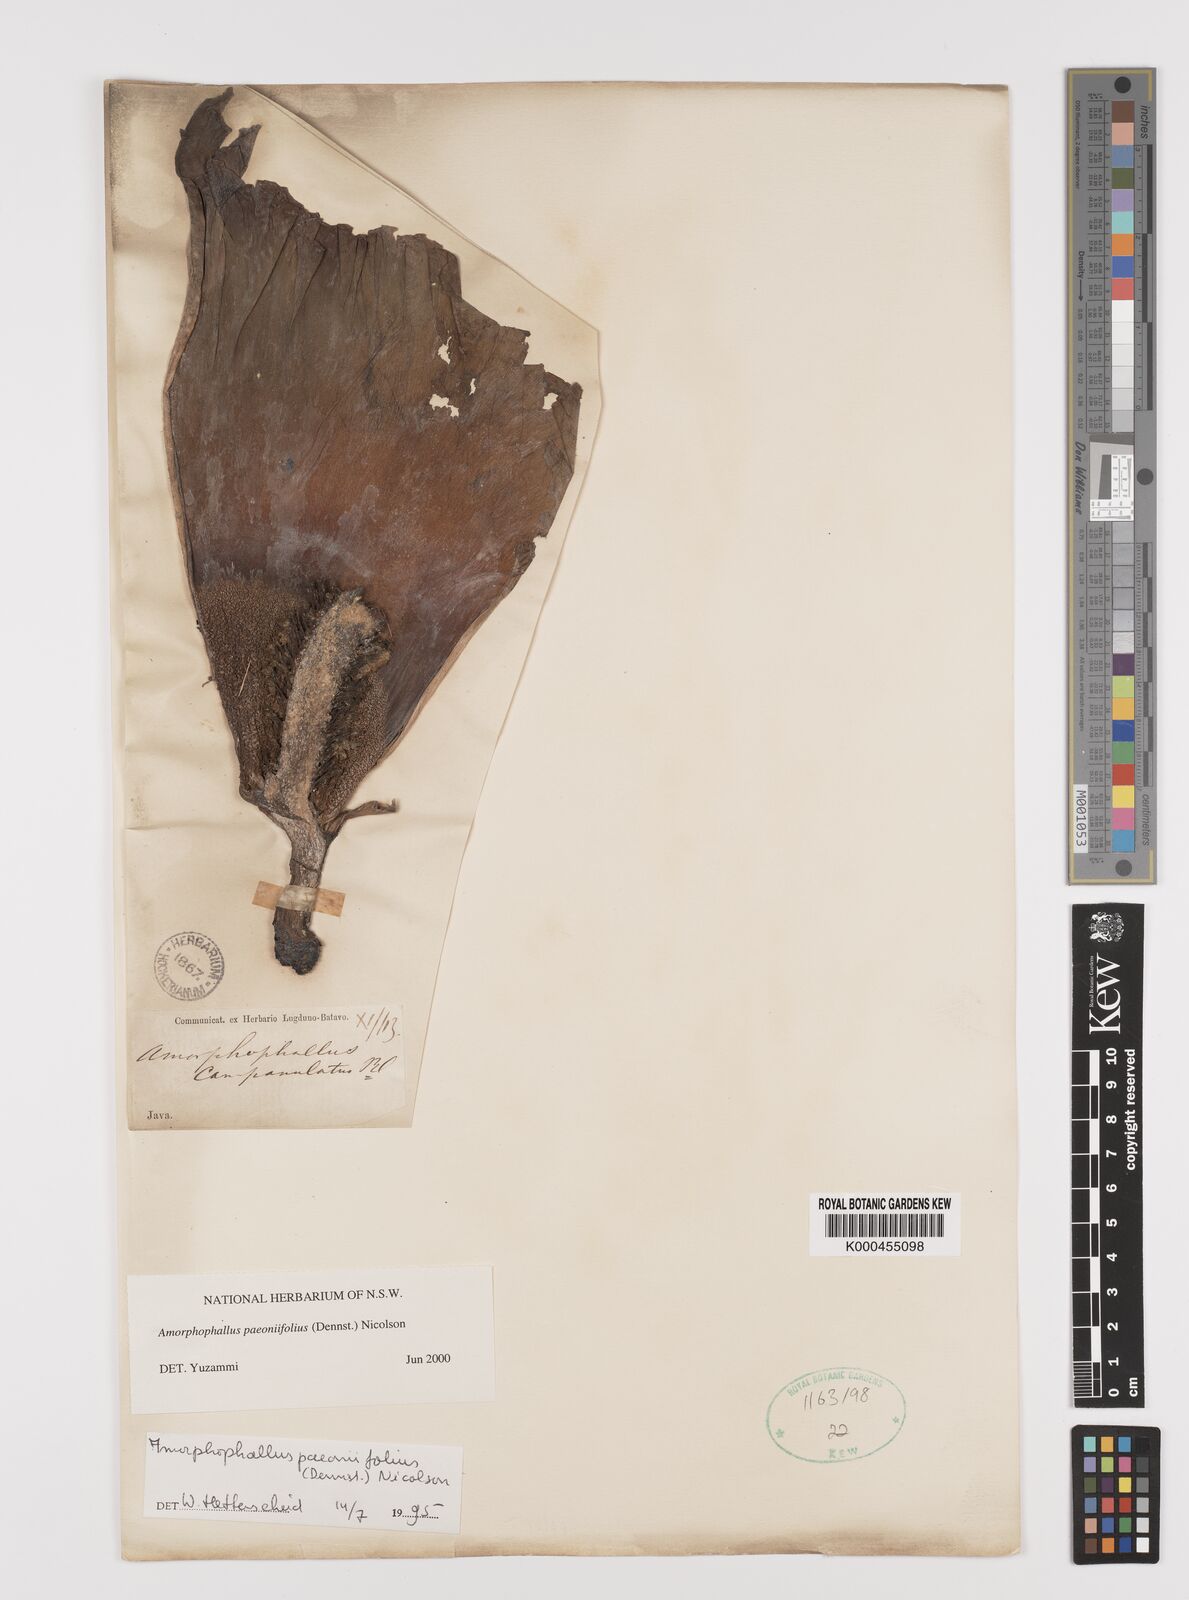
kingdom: Plantae
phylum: Tracheophyta
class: Liliopsida
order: Alismatales
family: Araceae
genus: Amorphophallus
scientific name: Amorphophallus paeoniifolius
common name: Telinga-potato
